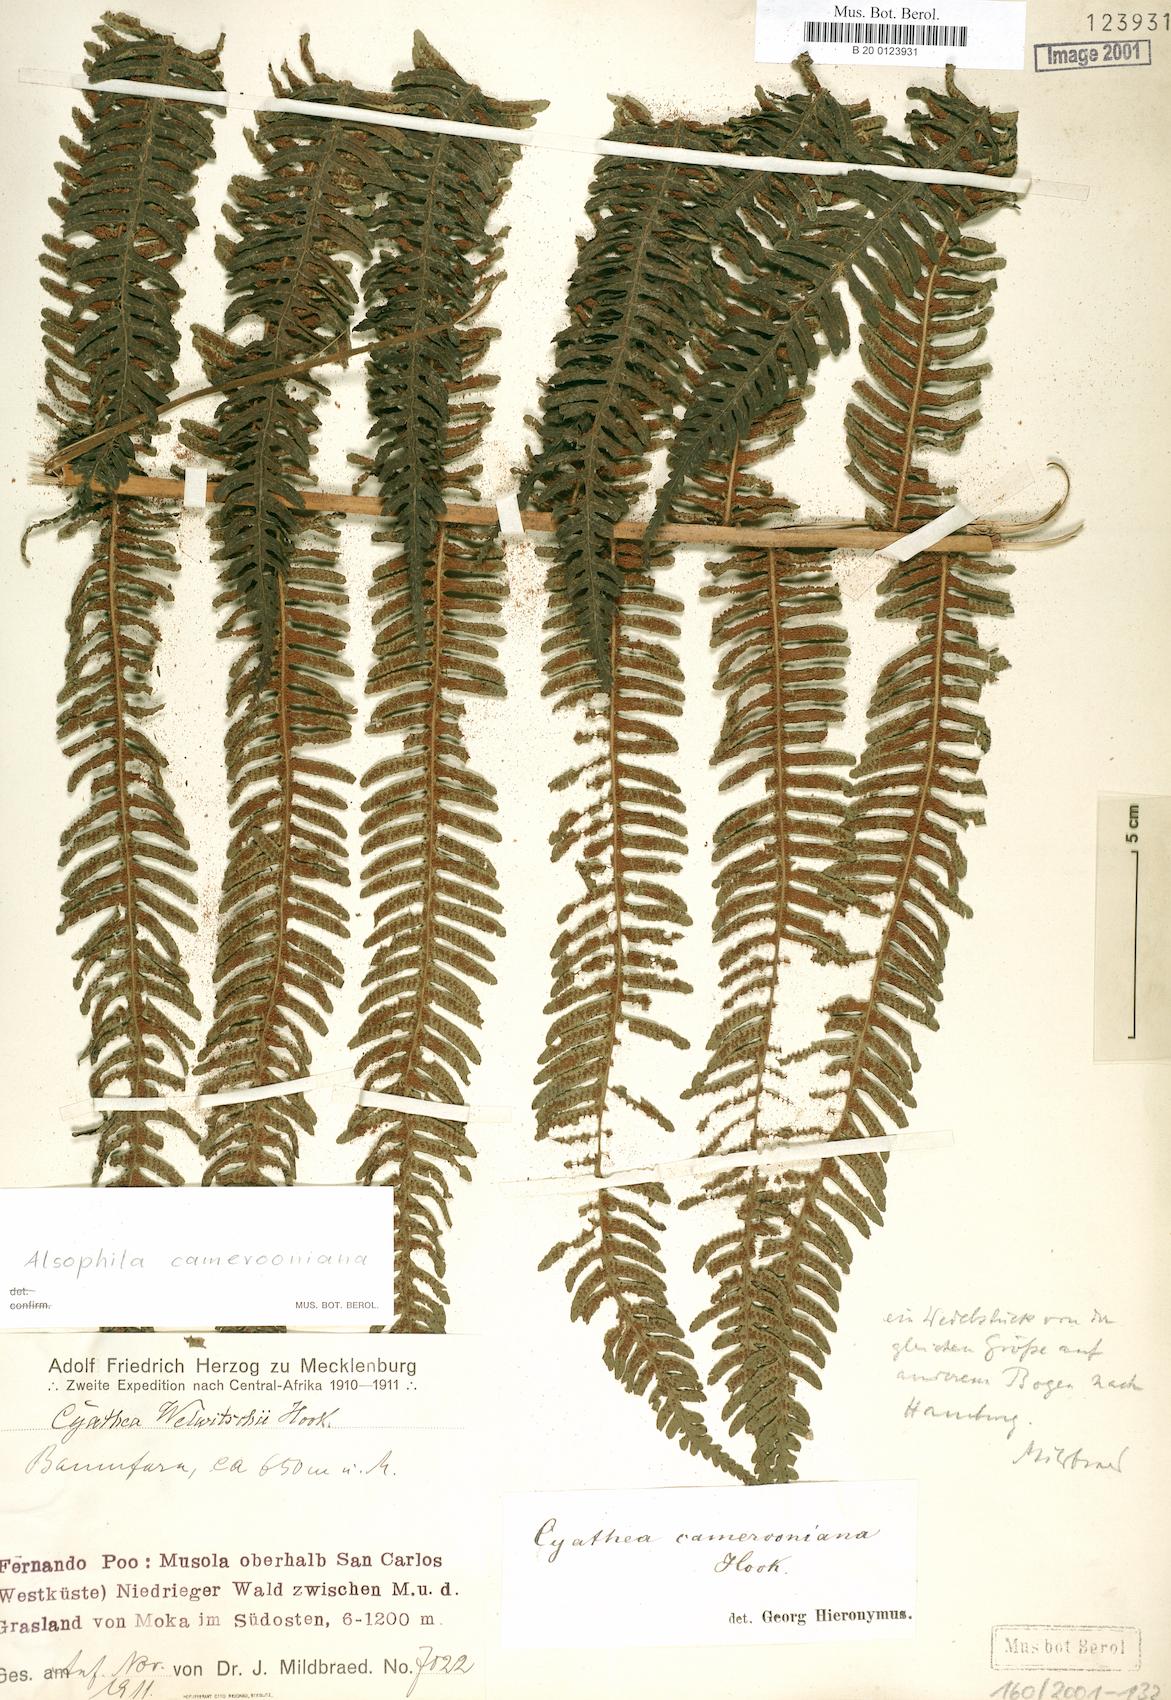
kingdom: Plantae
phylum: Tracheophyta
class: Polypodiopsida
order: Cyatheales
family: Cyatheaceae
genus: Alsophila
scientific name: Alsophila camerooniana
